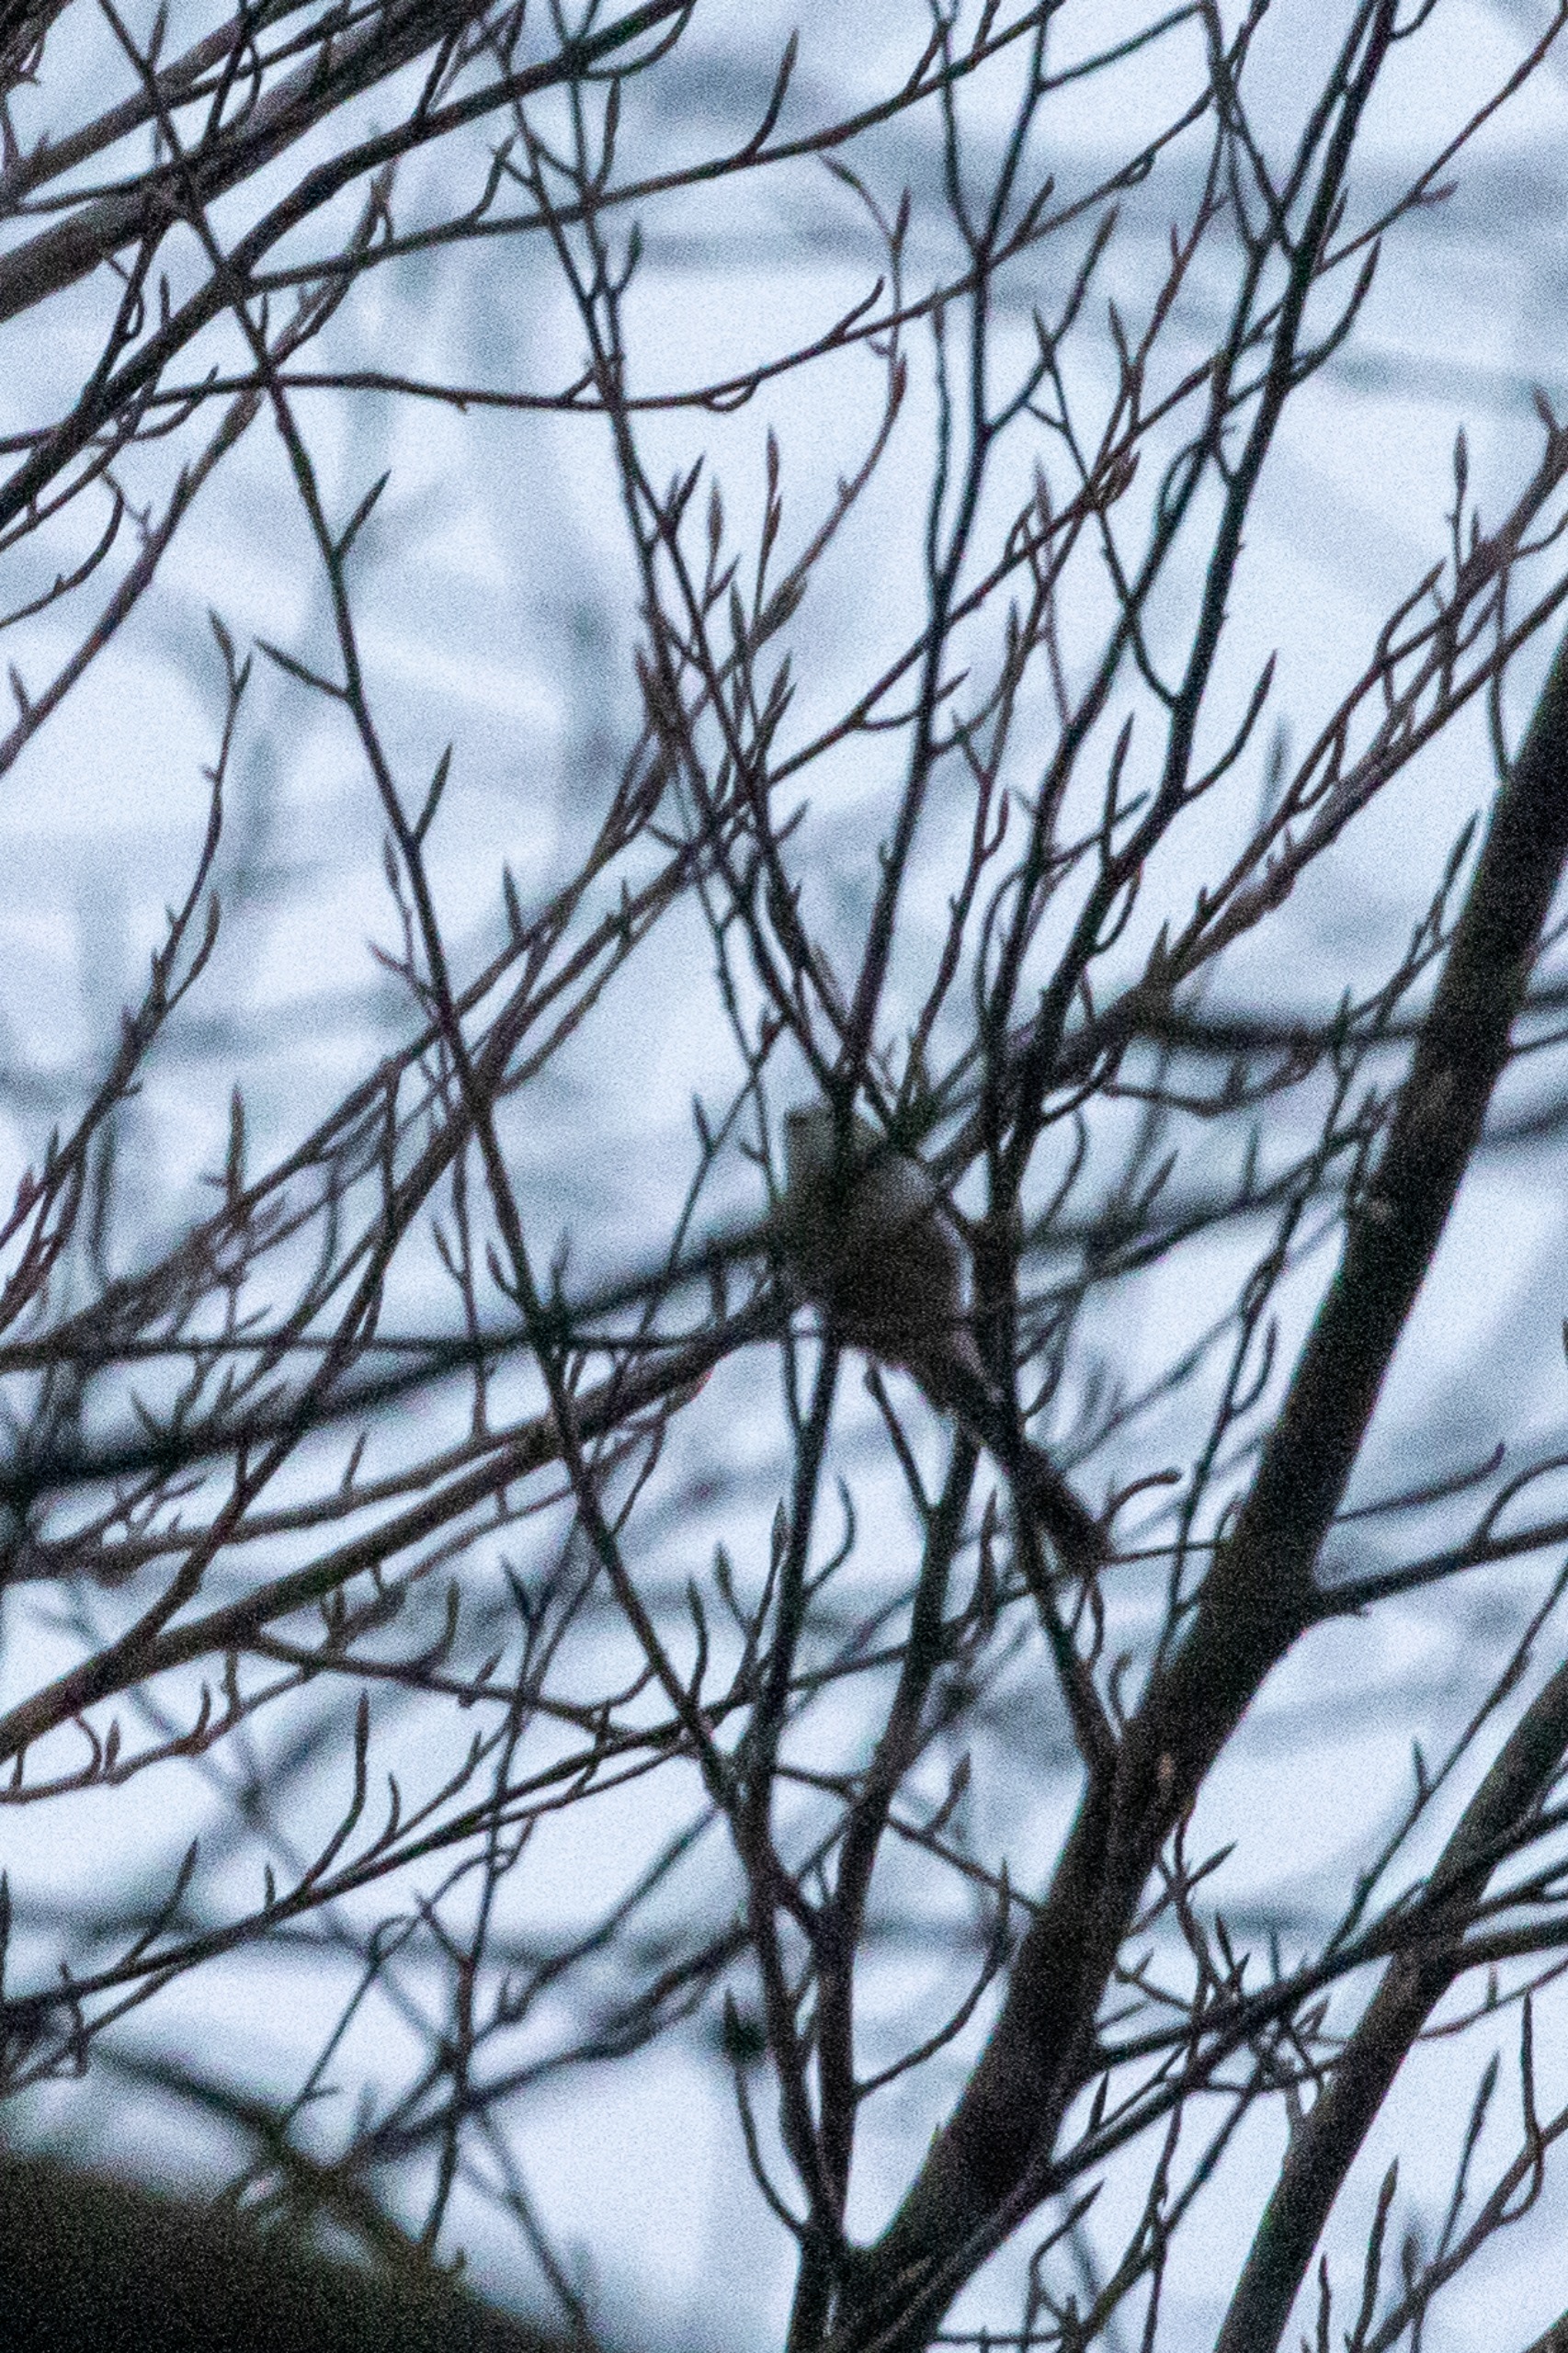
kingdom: Animalia
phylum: Chordata
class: Aves
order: Passeriformes
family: Aegithalidae
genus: Aegithalos
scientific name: Aegithalos caudatus
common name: Halemejse
